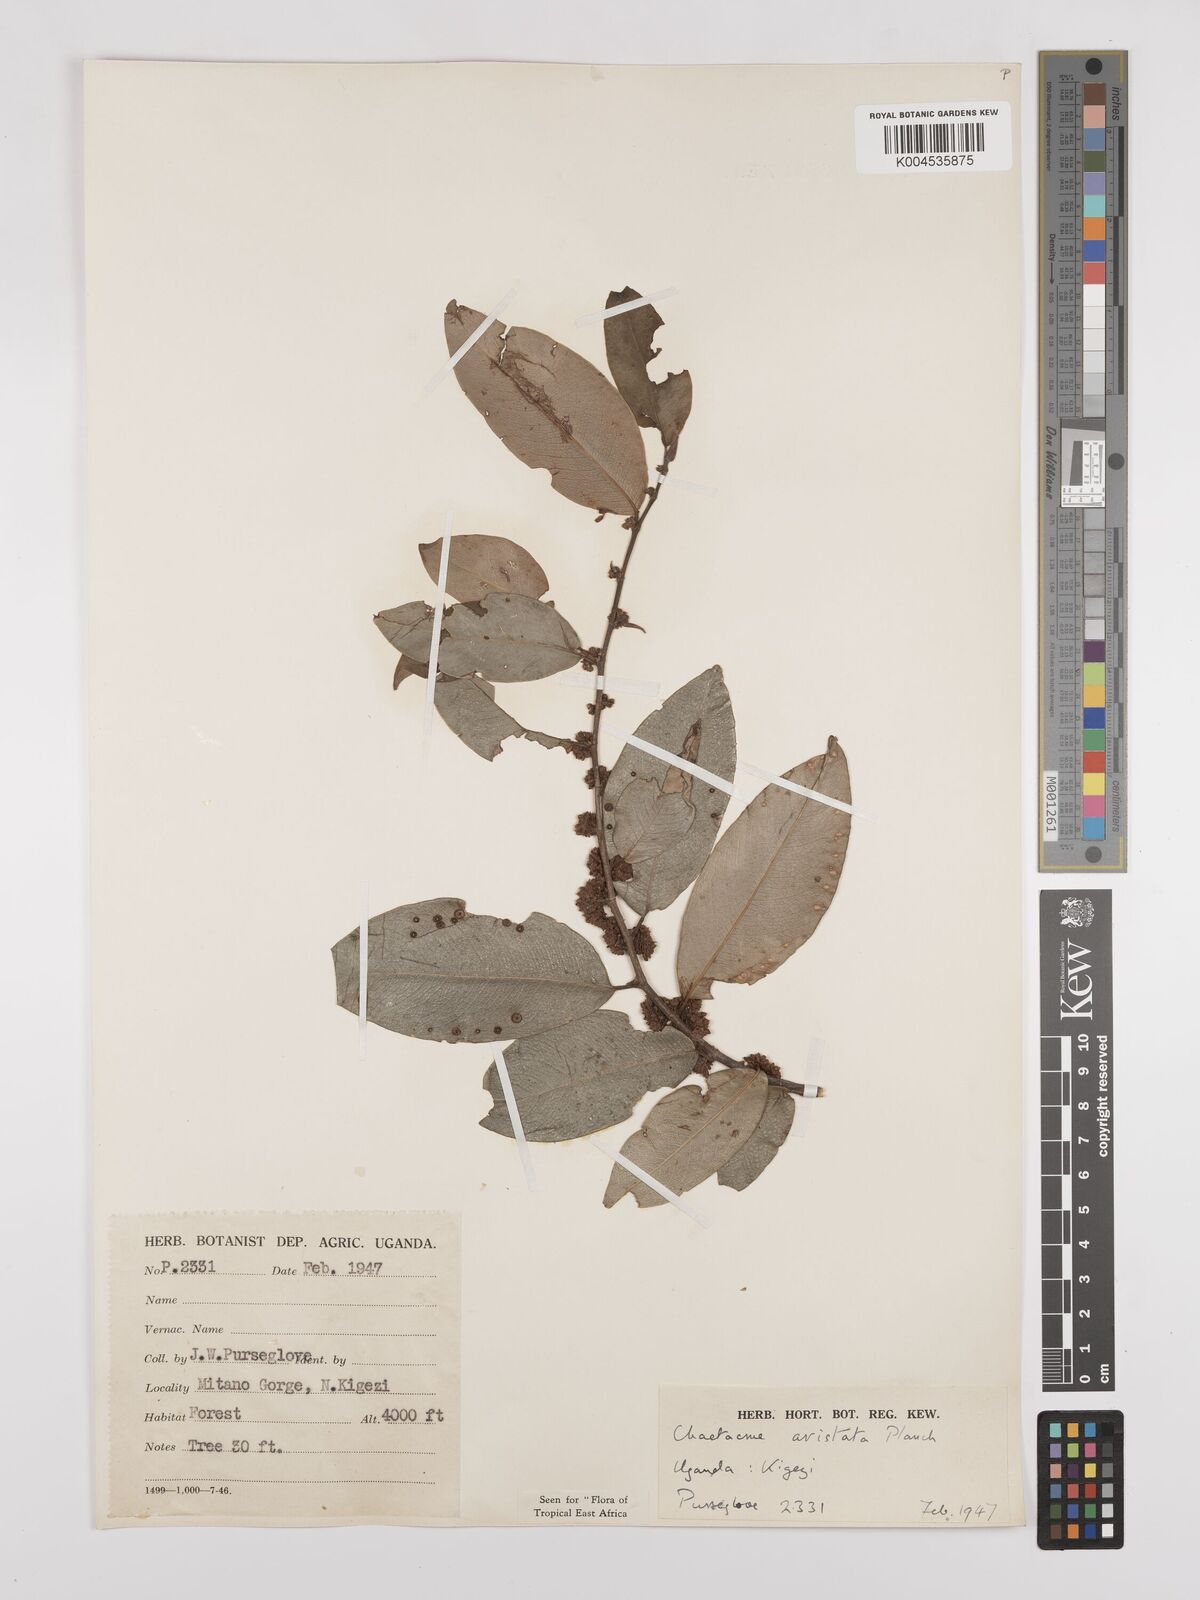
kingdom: Plantae
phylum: Tracheophyta
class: Magnoliopsida
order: Rosales
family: Cannabaceae
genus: Chaetachme
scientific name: Chaetachme aristata
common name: Thorny elm
